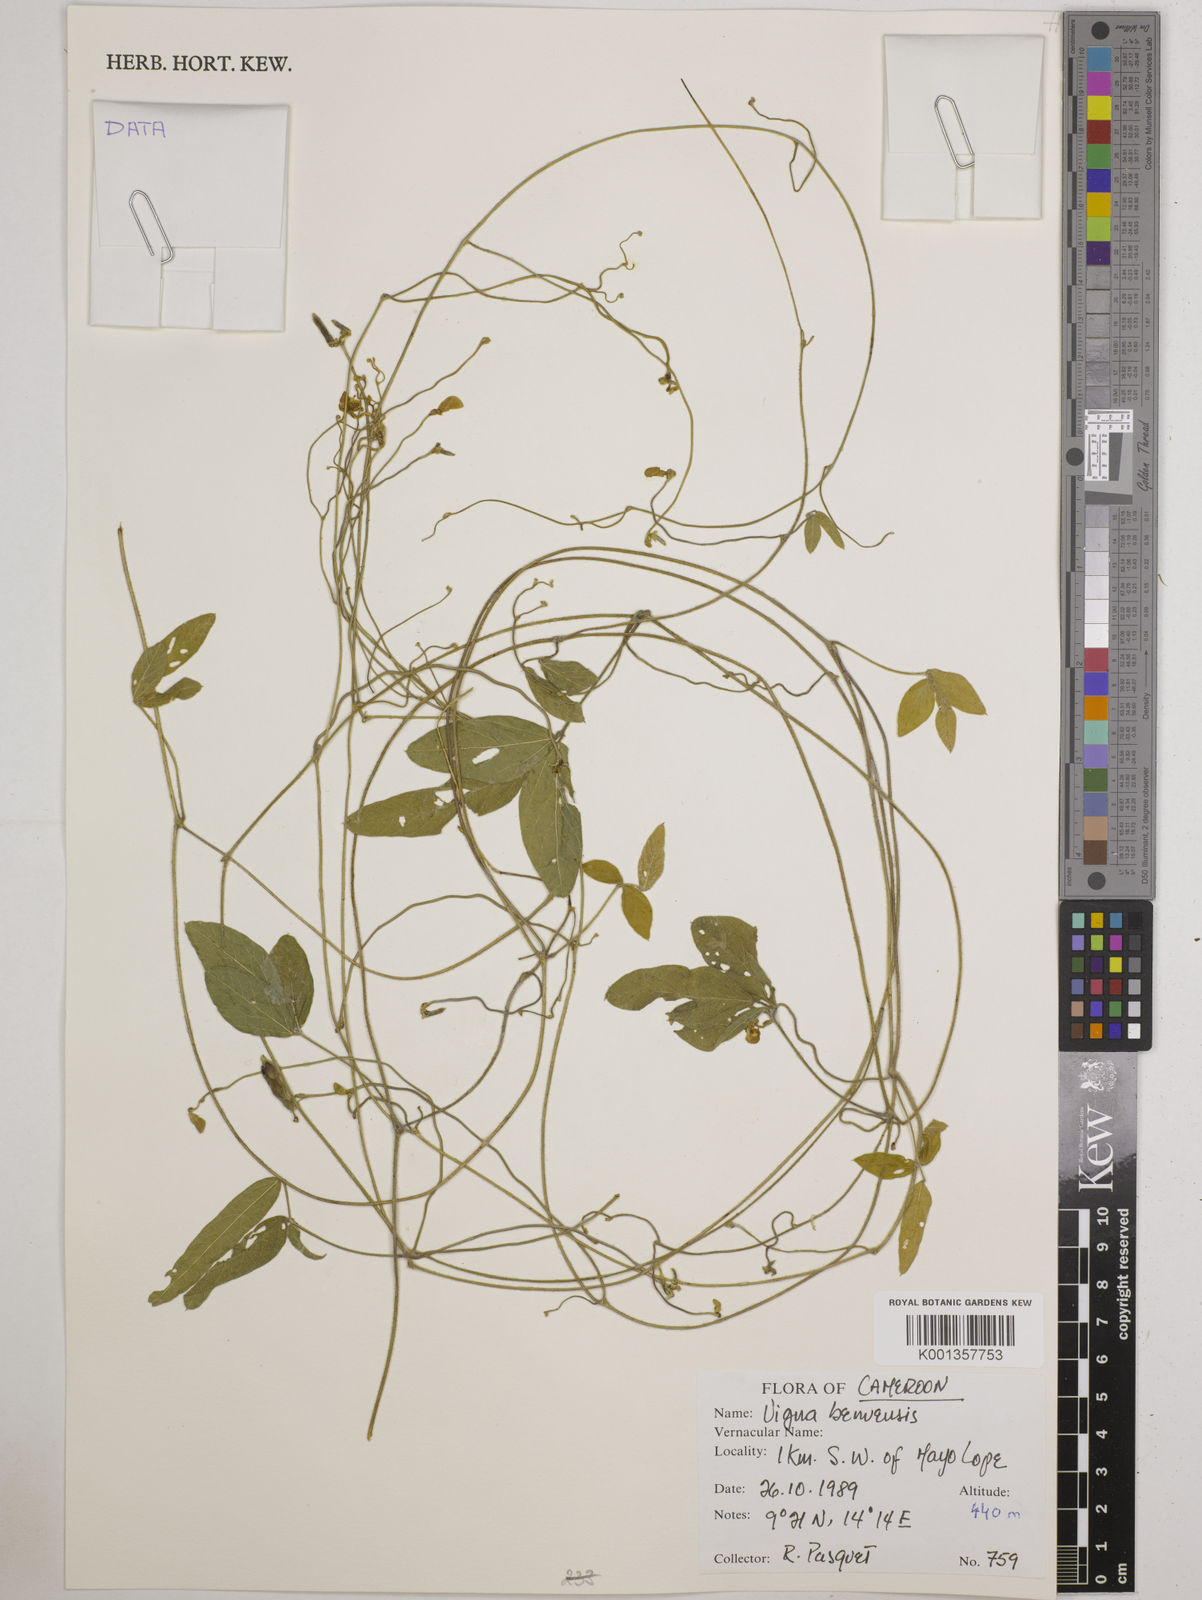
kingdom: Plantae
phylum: Tracheophyta
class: Magnoliopsida
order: Fabales
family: Fabaceae
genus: Vigna
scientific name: Vigna pubigera
